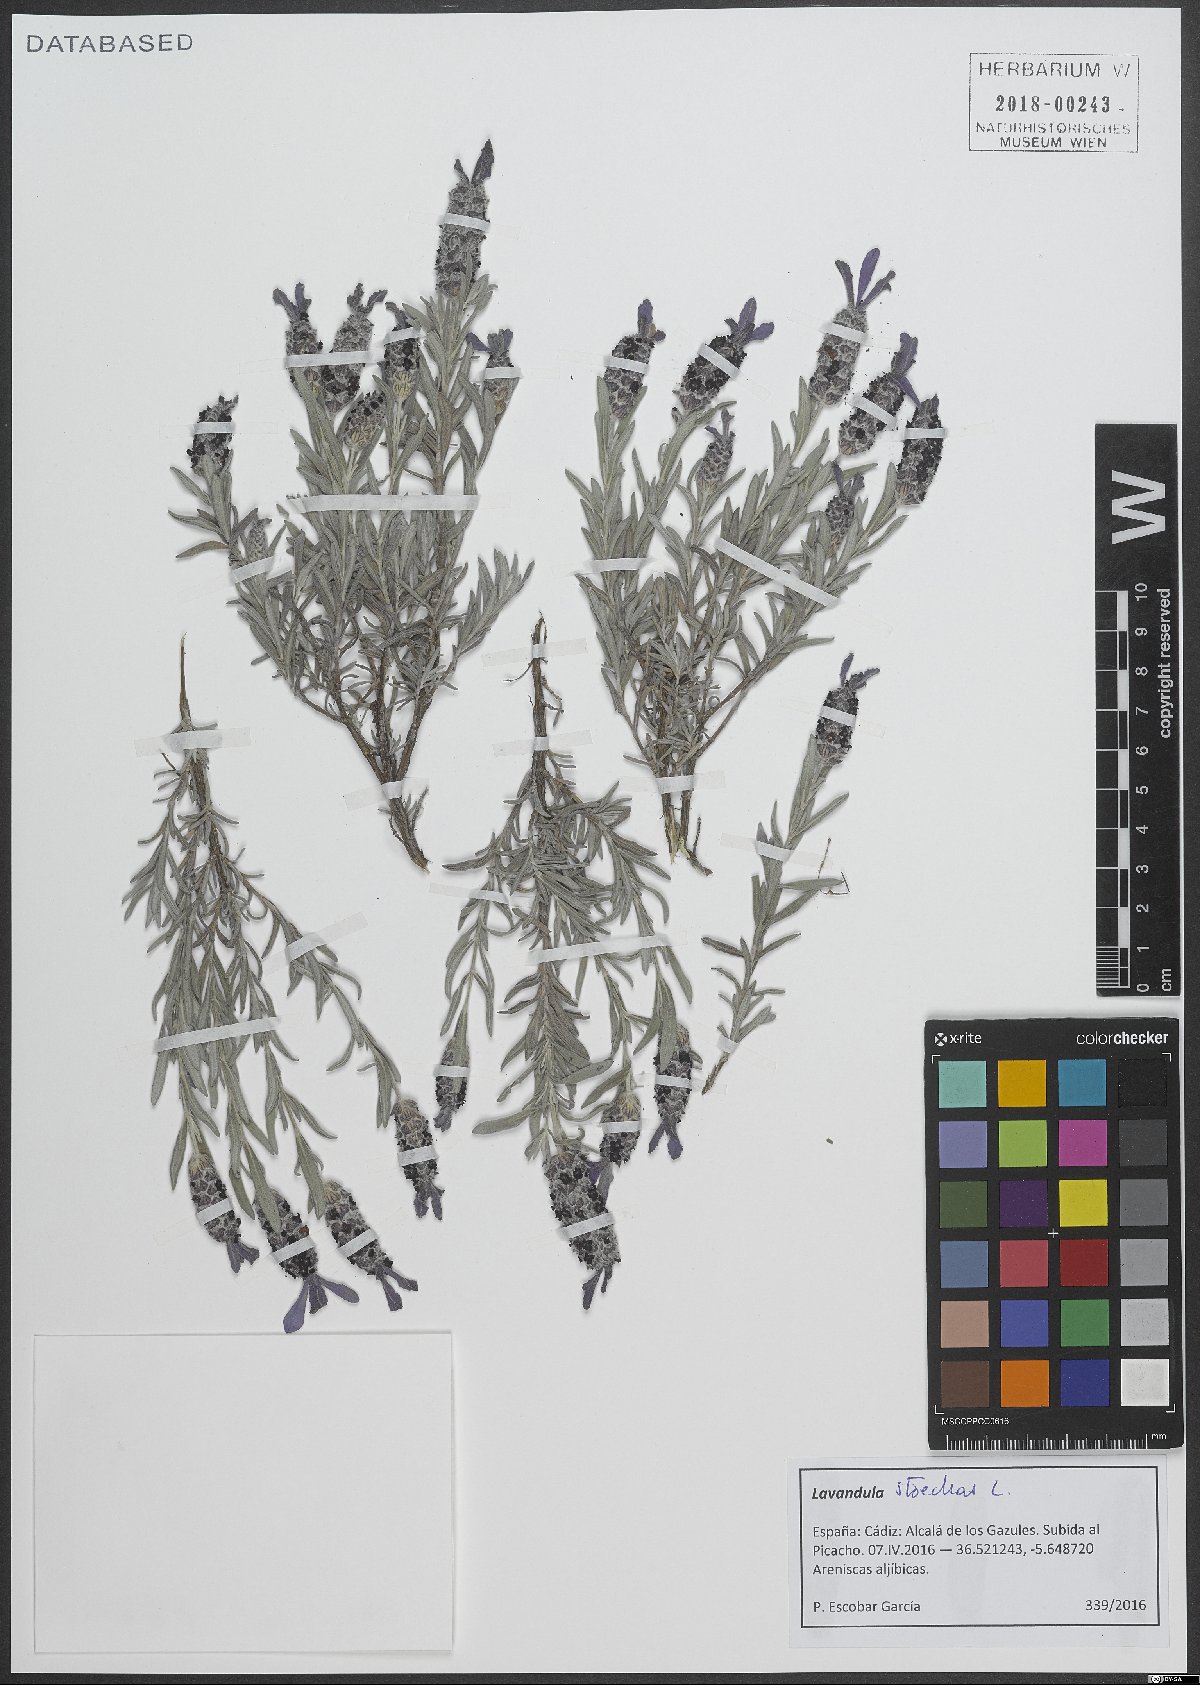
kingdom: Plantae
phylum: Tracheophyta
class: Magnoliopsida
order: Lamiales
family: Lamiaceae
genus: Lavandula
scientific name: Lavandula stoechas
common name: French lavender
